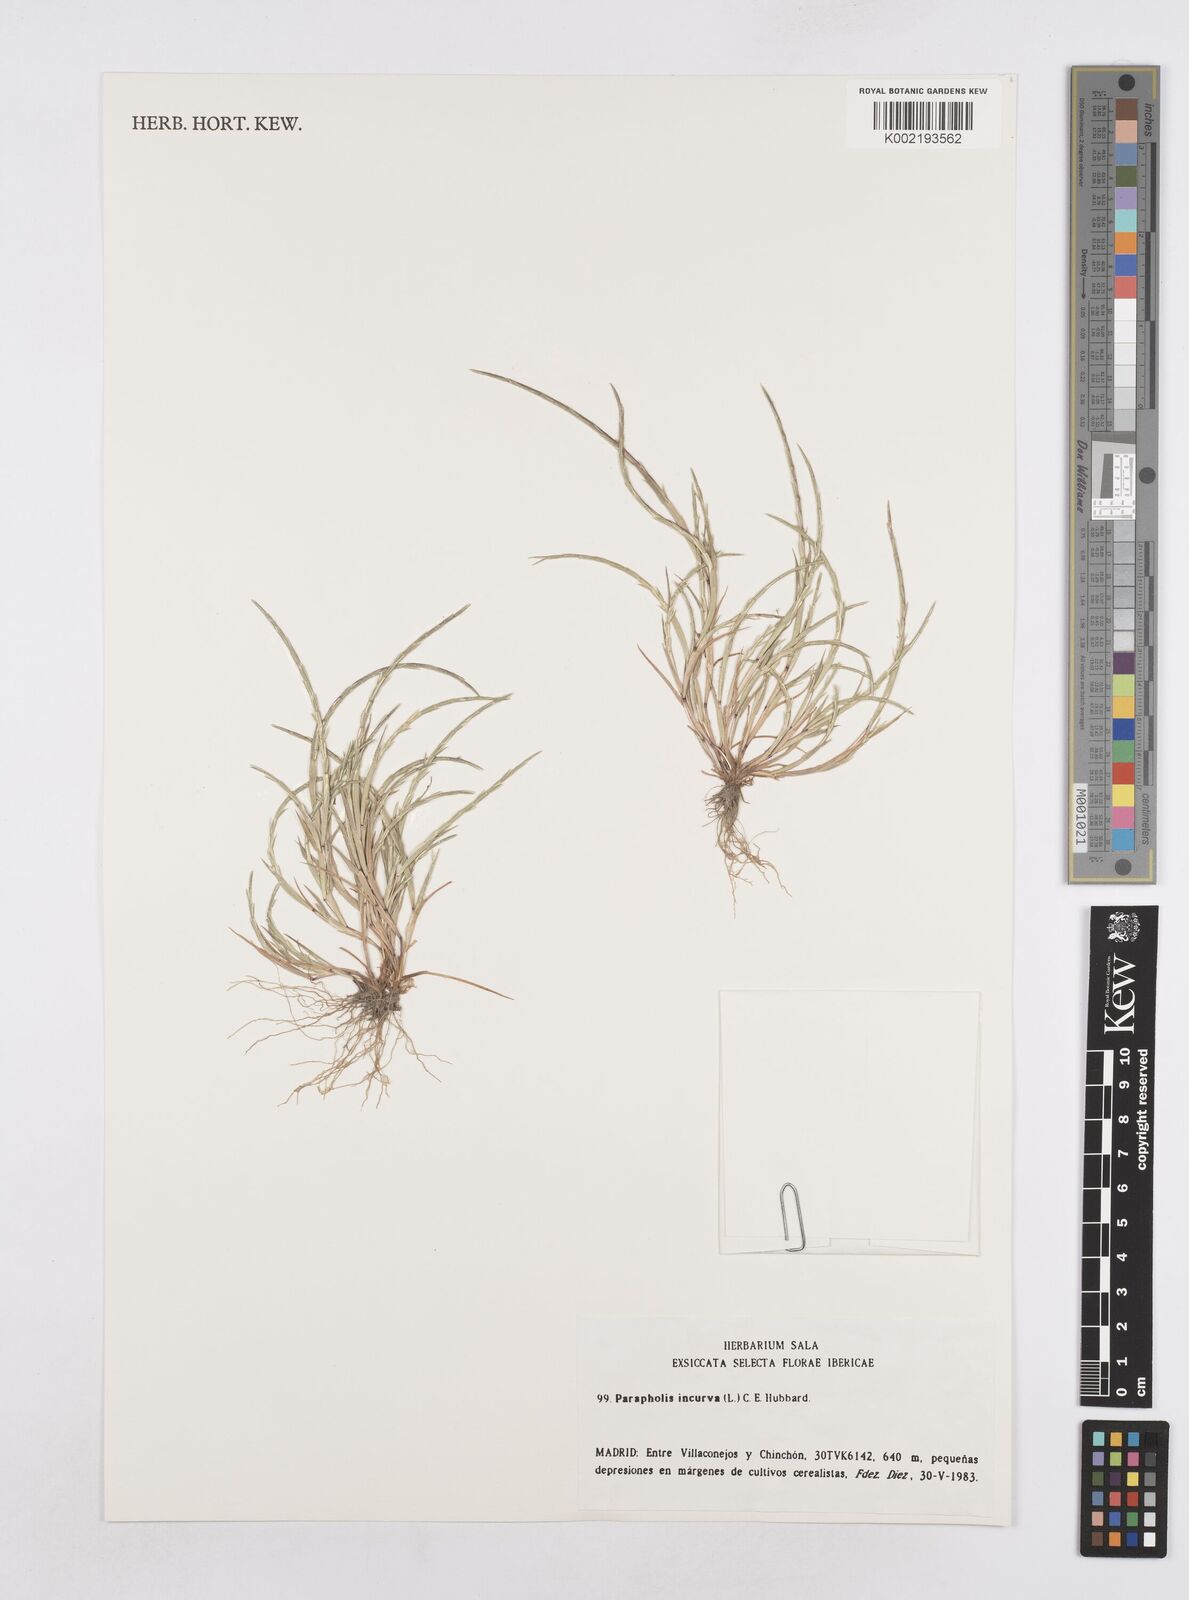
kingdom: Plantae
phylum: Tracheophyta
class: Liliopsida
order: Poales
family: Poaceae
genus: Parapholis
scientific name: Parapholis incurva
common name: Curved sicklegrass
